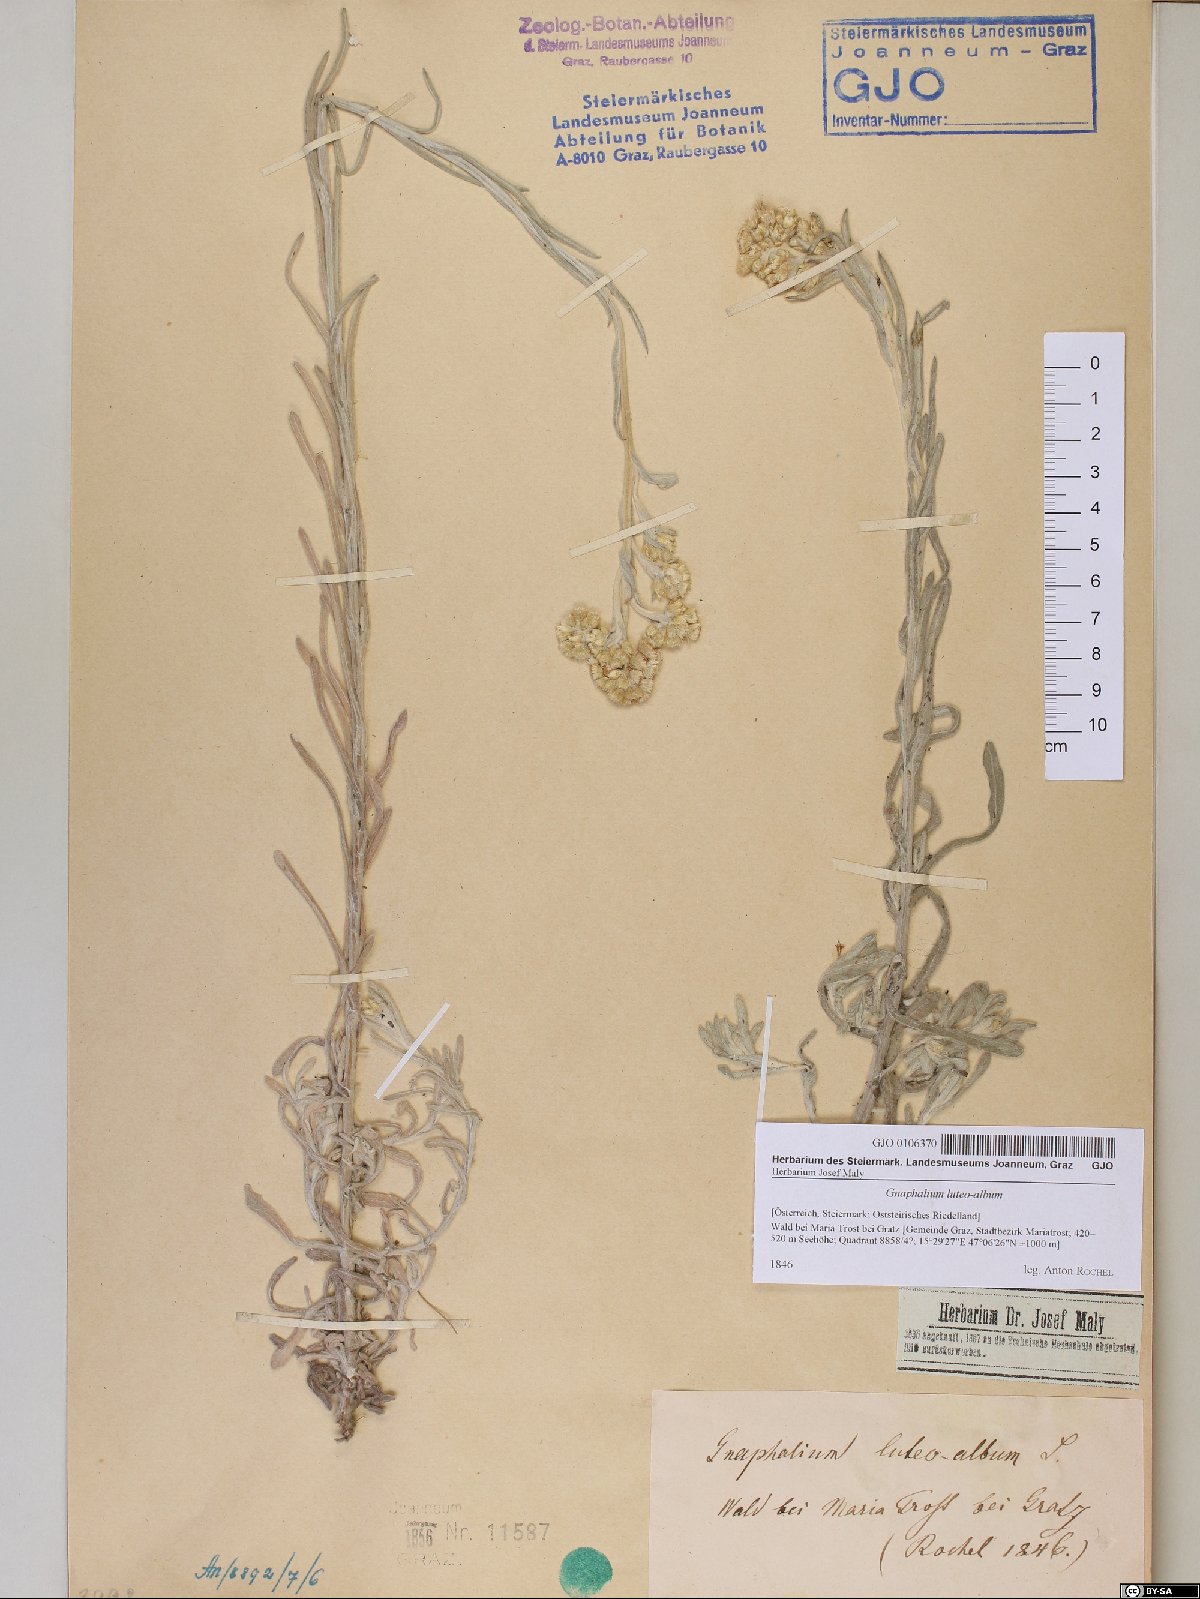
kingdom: Plantae
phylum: Tracheophyta
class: Magnoliopsida
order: Asterales
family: Asteraceae
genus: Helichrysum
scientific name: Helichrysum luteoalbum
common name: Daisy
